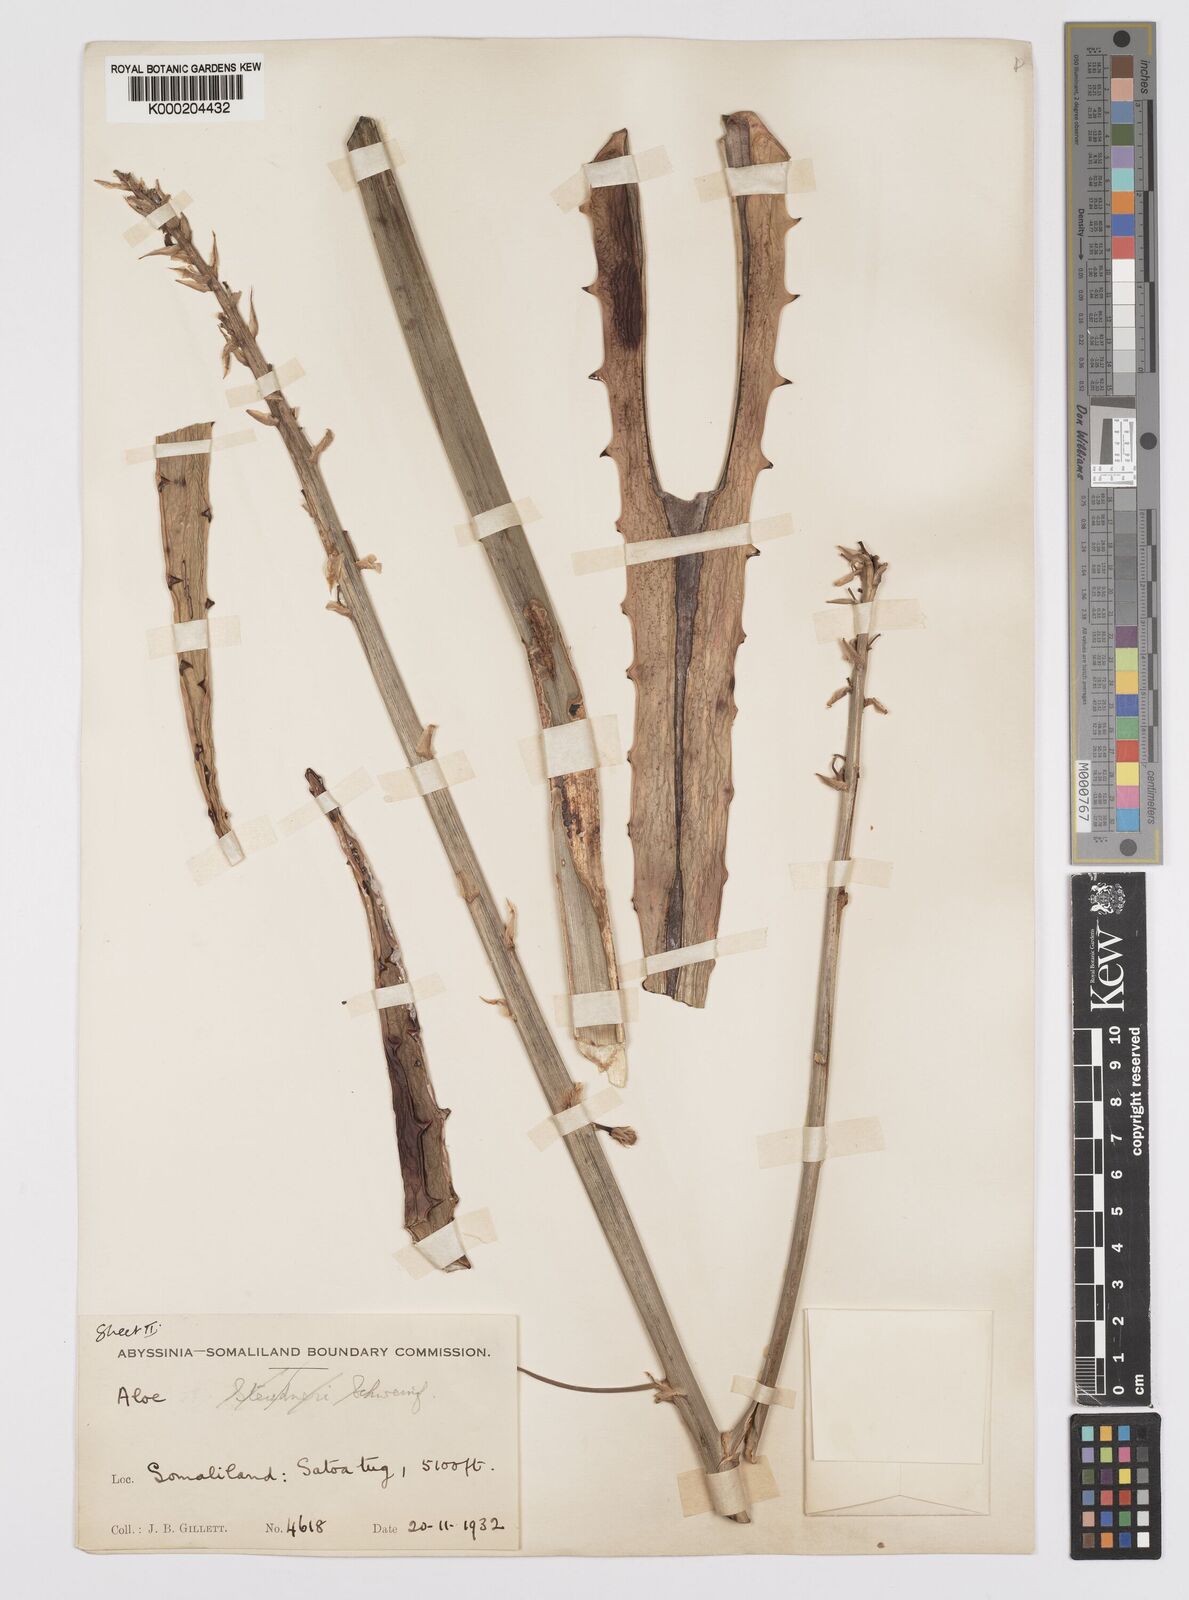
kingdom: Plantae
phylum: Tracheophyta
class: Liliopsida
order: Asparagales
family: Asphodelaceae
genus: Aloe
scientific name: Aloe rigens
